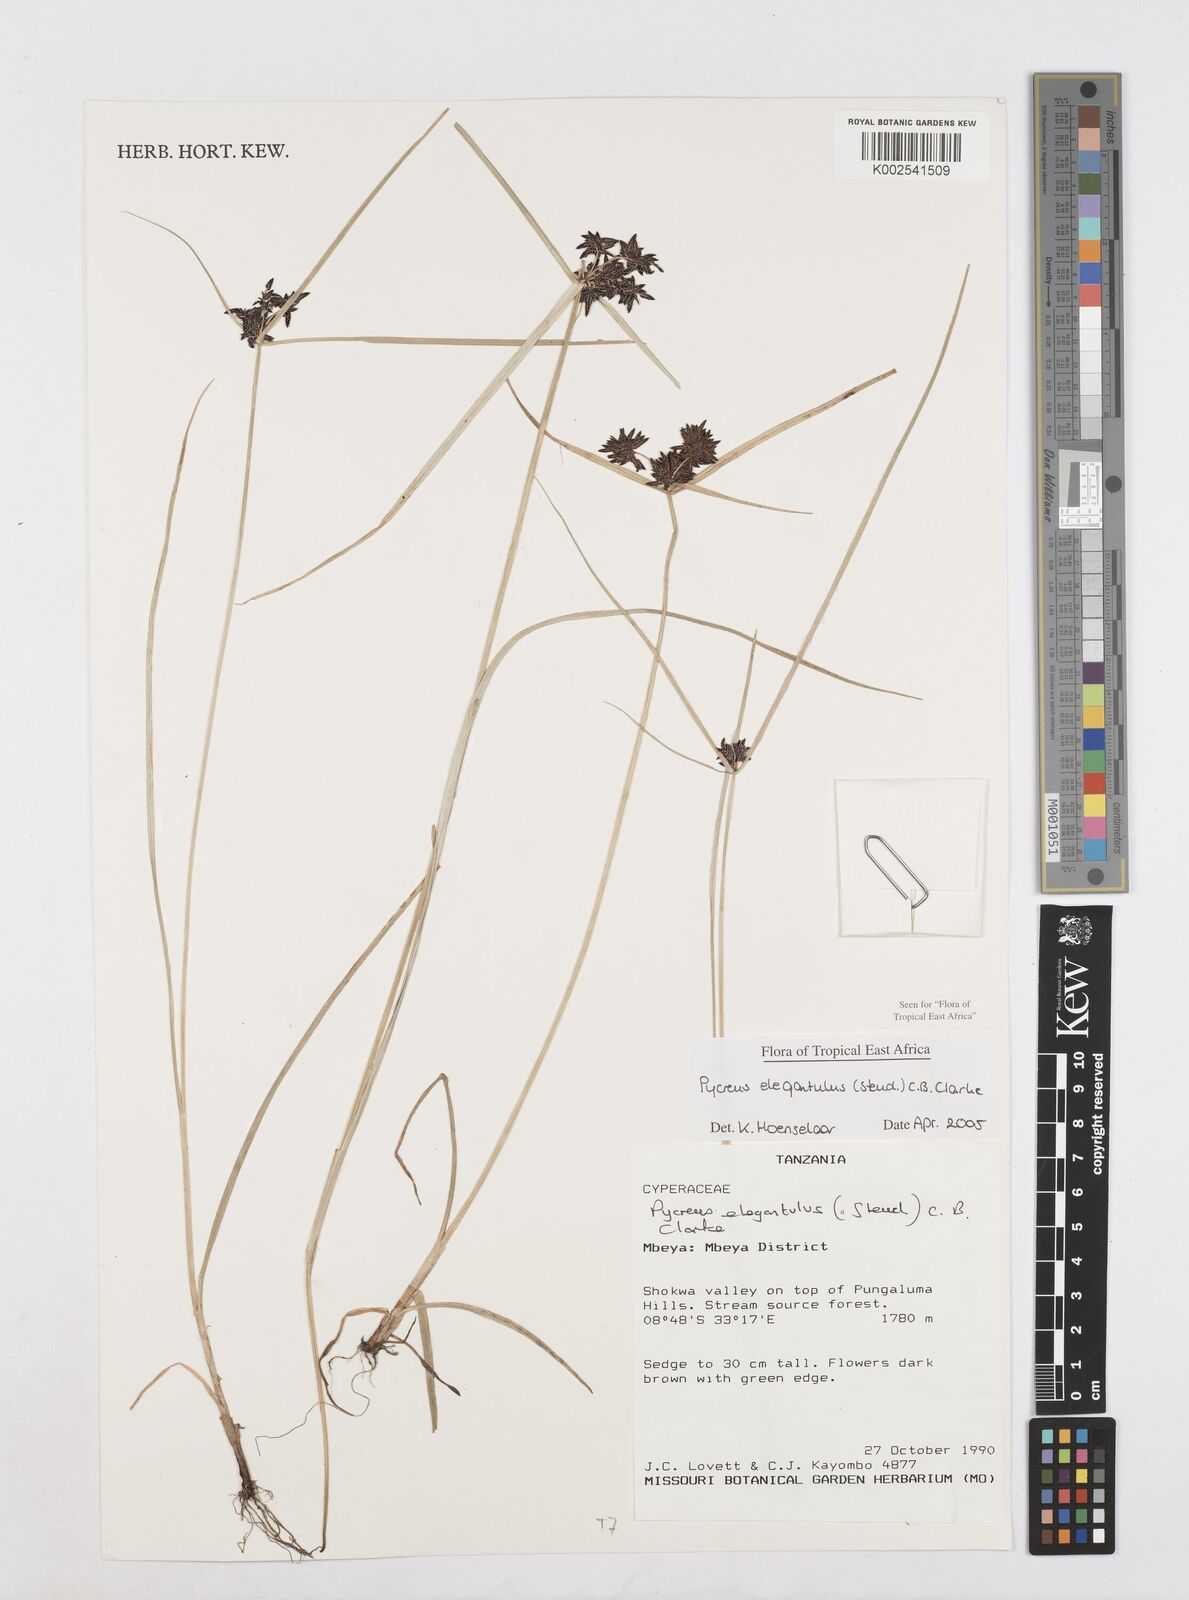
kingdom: Plantae
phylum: Tracheophyta
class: Liliopsida
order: Poales
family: Cyperaceae
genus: Cyperus
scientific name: Cyperus elegantulus
